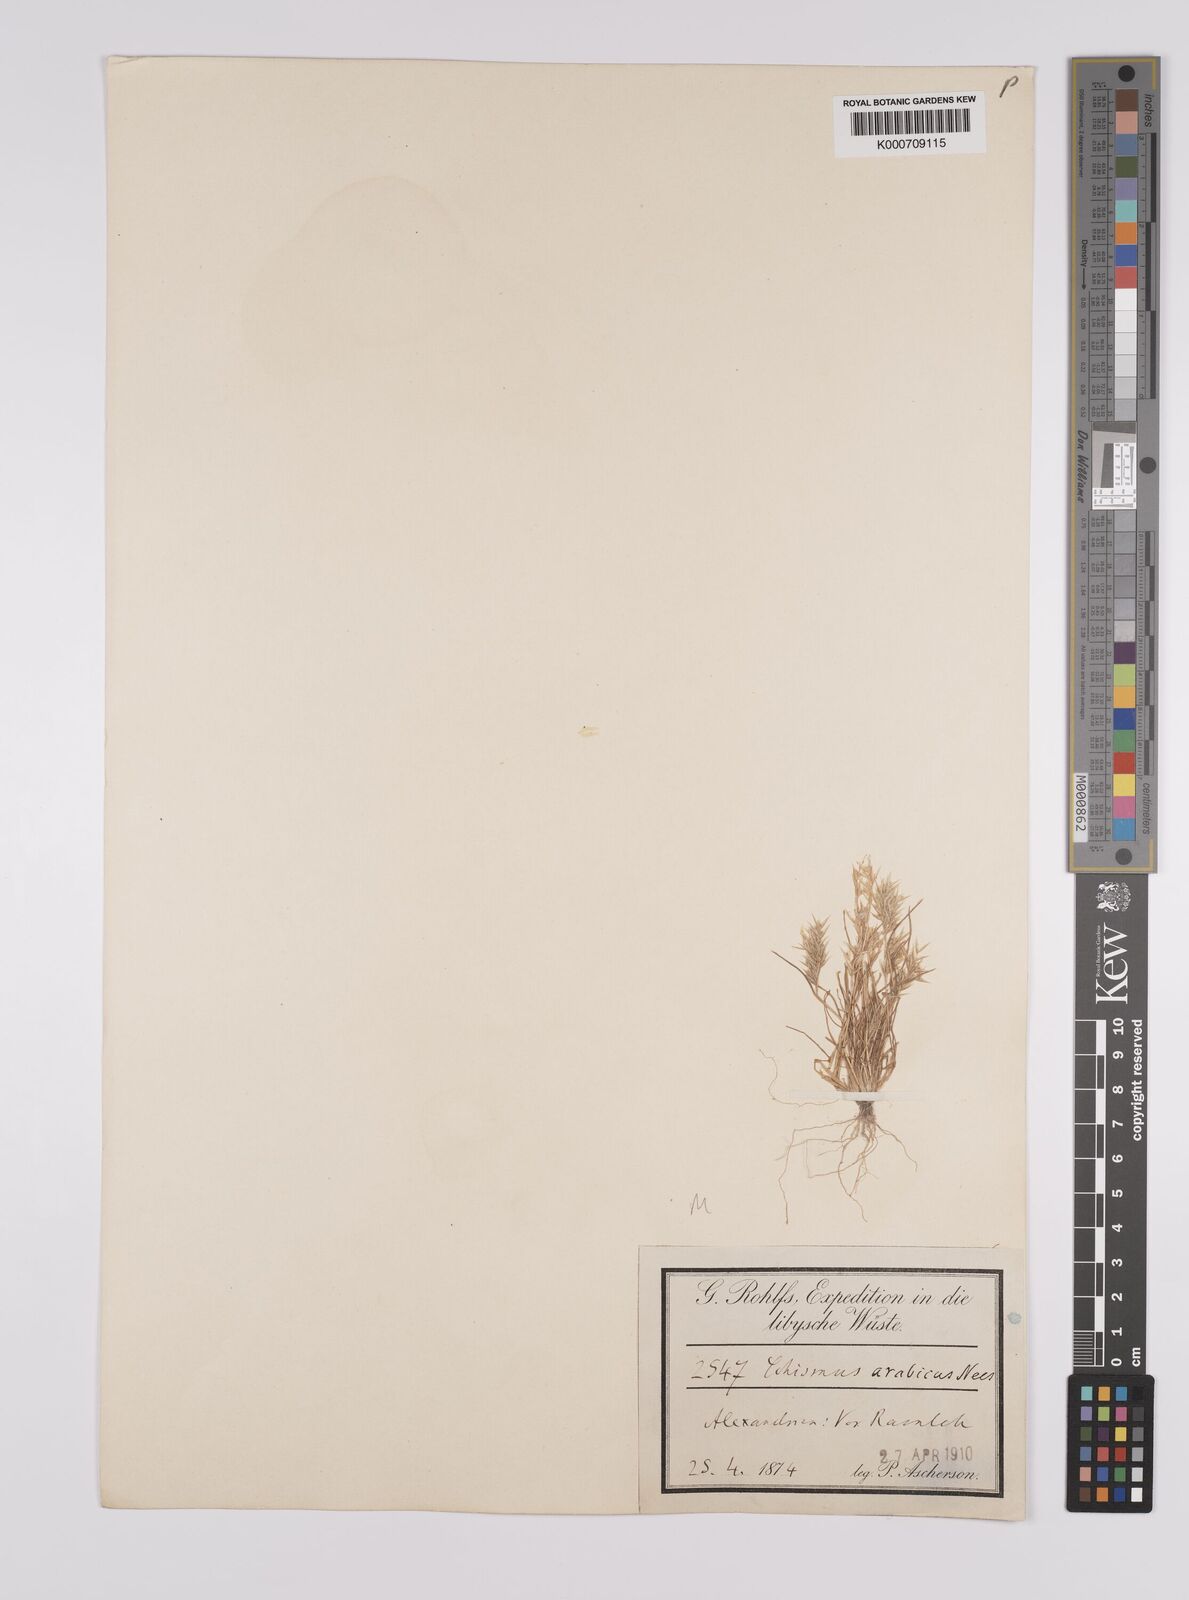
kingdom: Plantae
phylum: Tracheophyta
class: Liliopsida
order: Poales
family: Poaceae
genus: Schismus
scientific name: Schismus arabicus
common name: Arabian schismus
